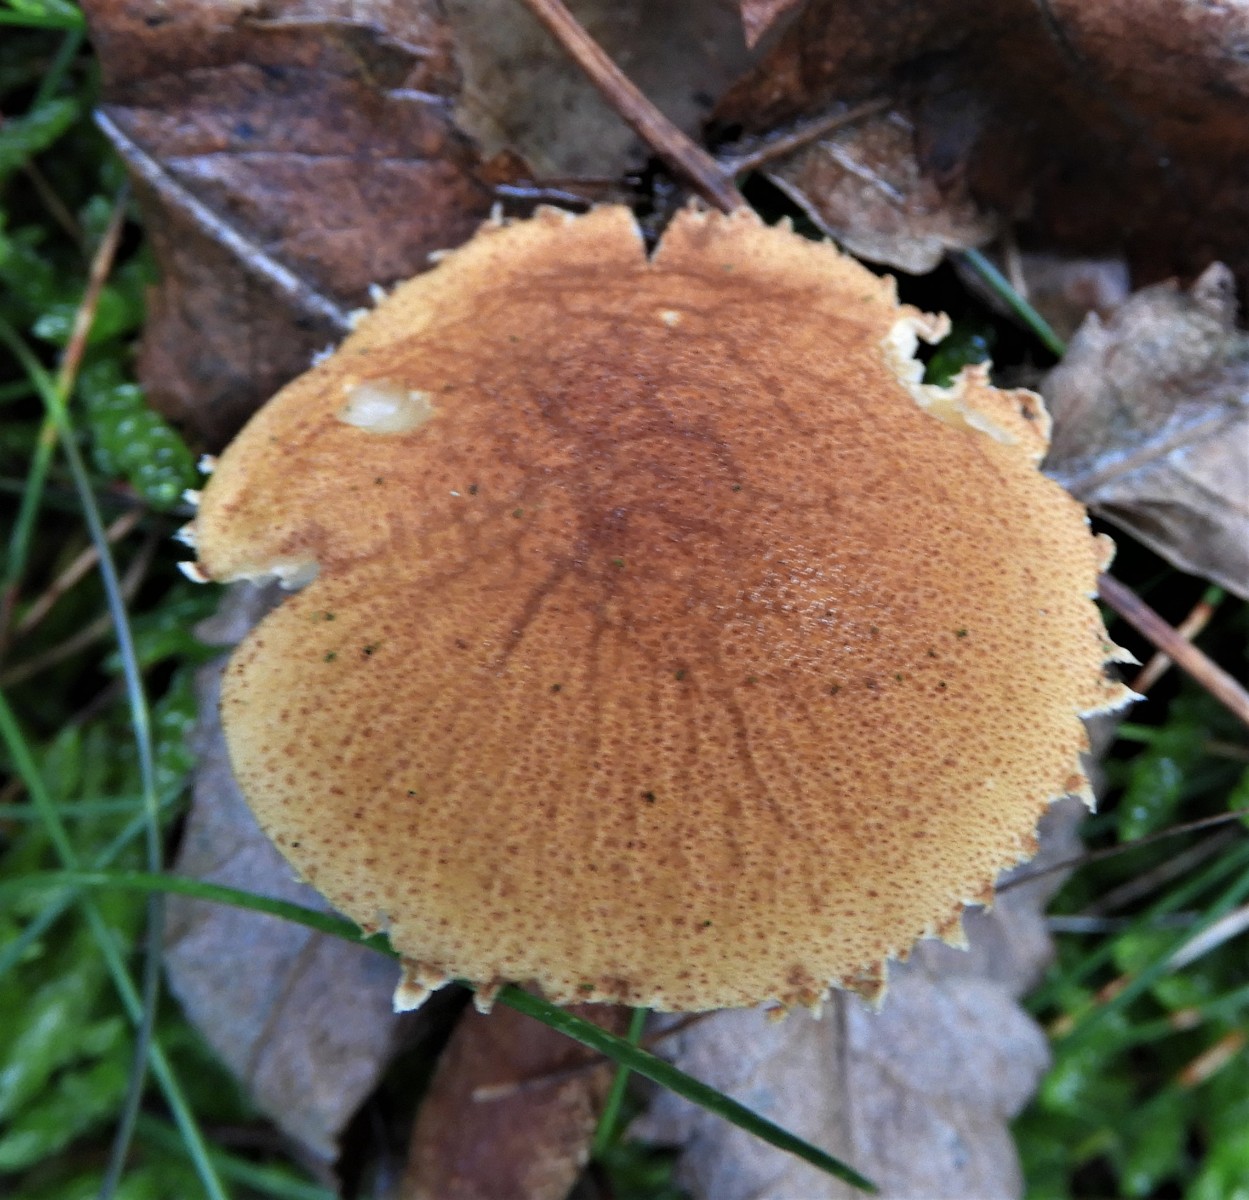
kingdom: Fungi
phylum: Basidiomycota
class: Agaricomycetes
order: Agaricales
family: Tricholomataceae
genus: Cystoderma
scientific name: Cystoderma amianthinum
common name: okkergul grynhat
